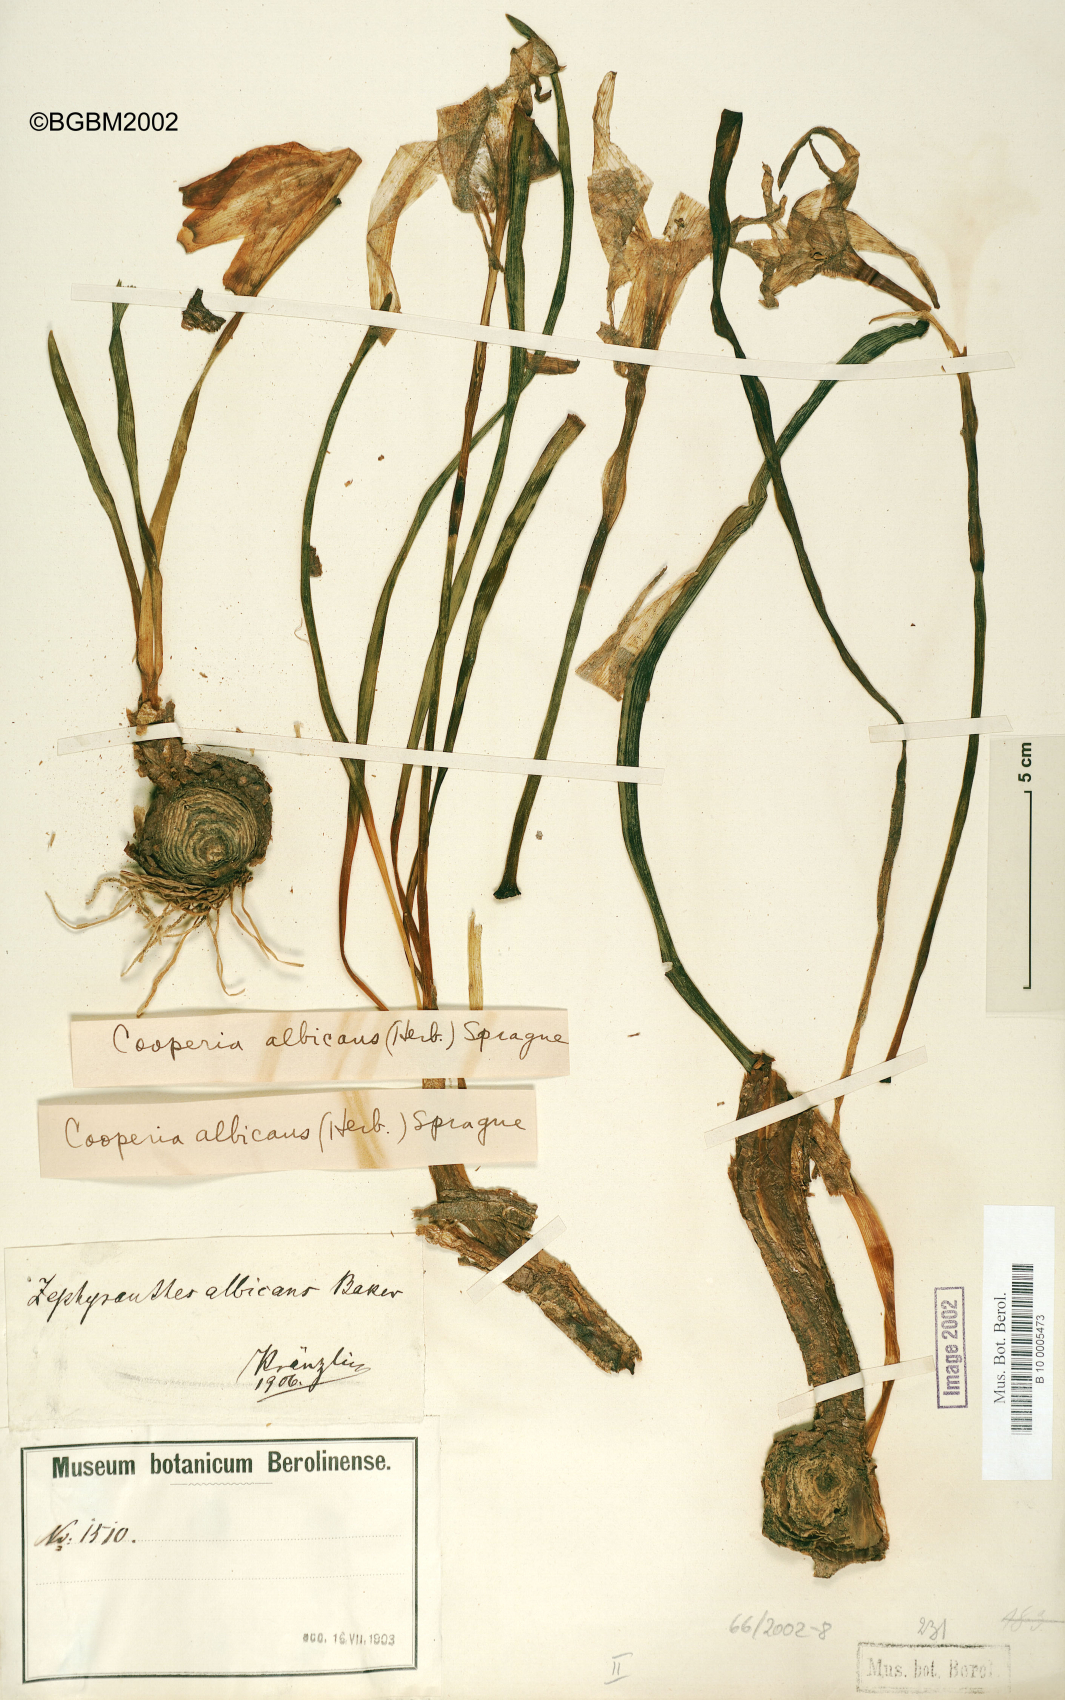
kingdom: Plantae
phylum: Tracheophyta
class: Liliopsida
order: Asparagales
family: Amaryllidaceae
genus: Pyrolirion
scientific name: Pyrolirion albicans
